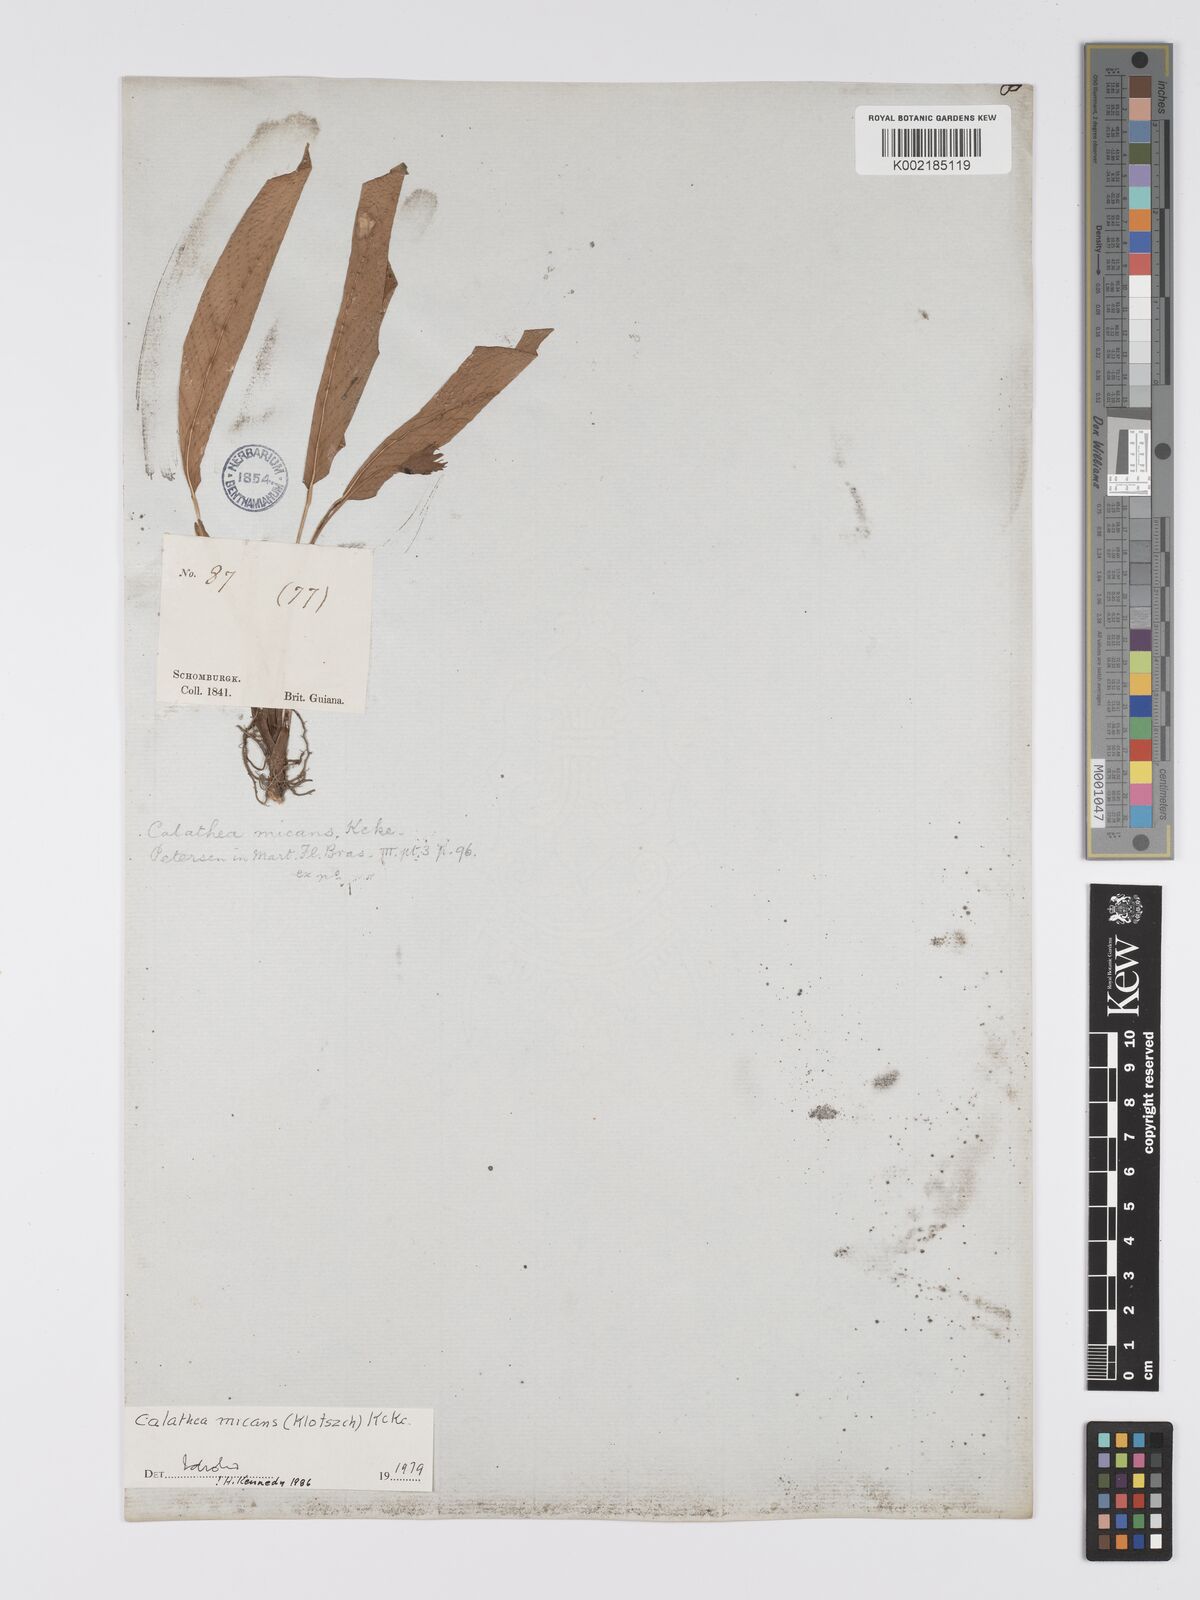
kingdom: Plantae
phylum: Tracheophyta
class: Liliopsida
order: Zingiberales
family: Marantaceae
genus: Goeppertia
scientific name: Goeppertia micans
